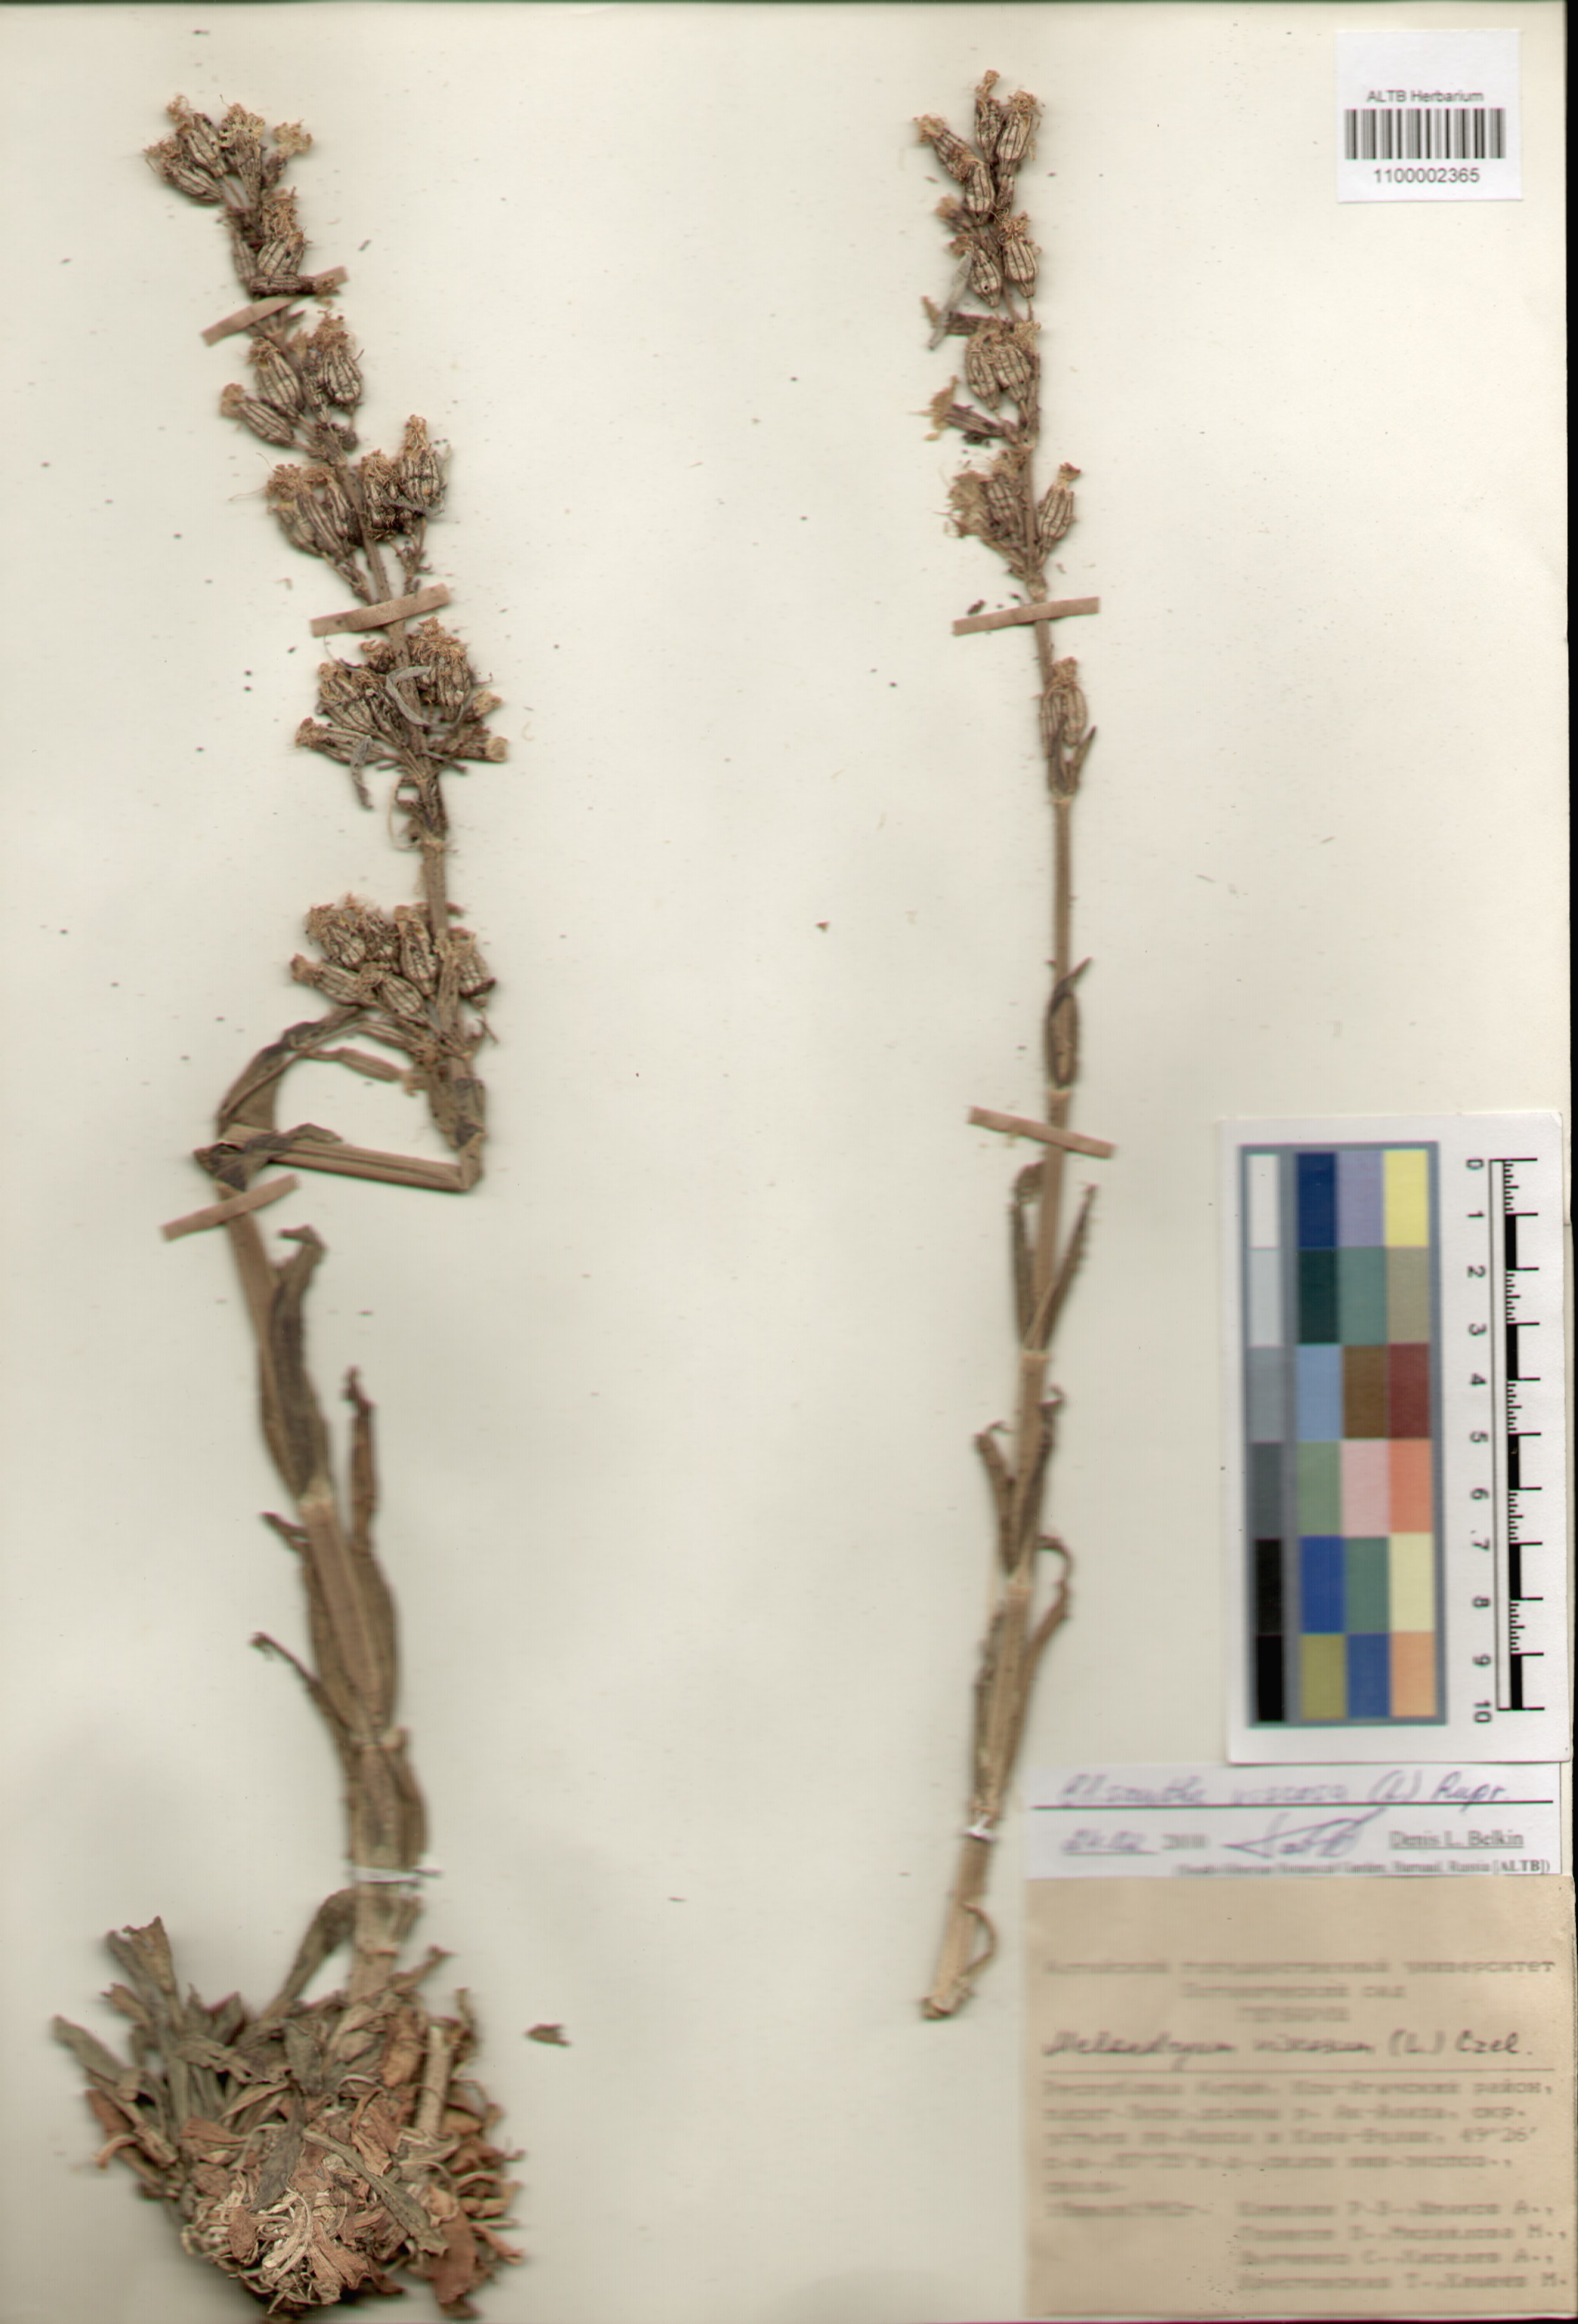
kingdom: Plantae
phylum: Tracheophyta
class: Magnoliopsida
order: Caryophyllales
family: Caryophyllaceae
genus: Silene
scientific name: Silene viscosa
